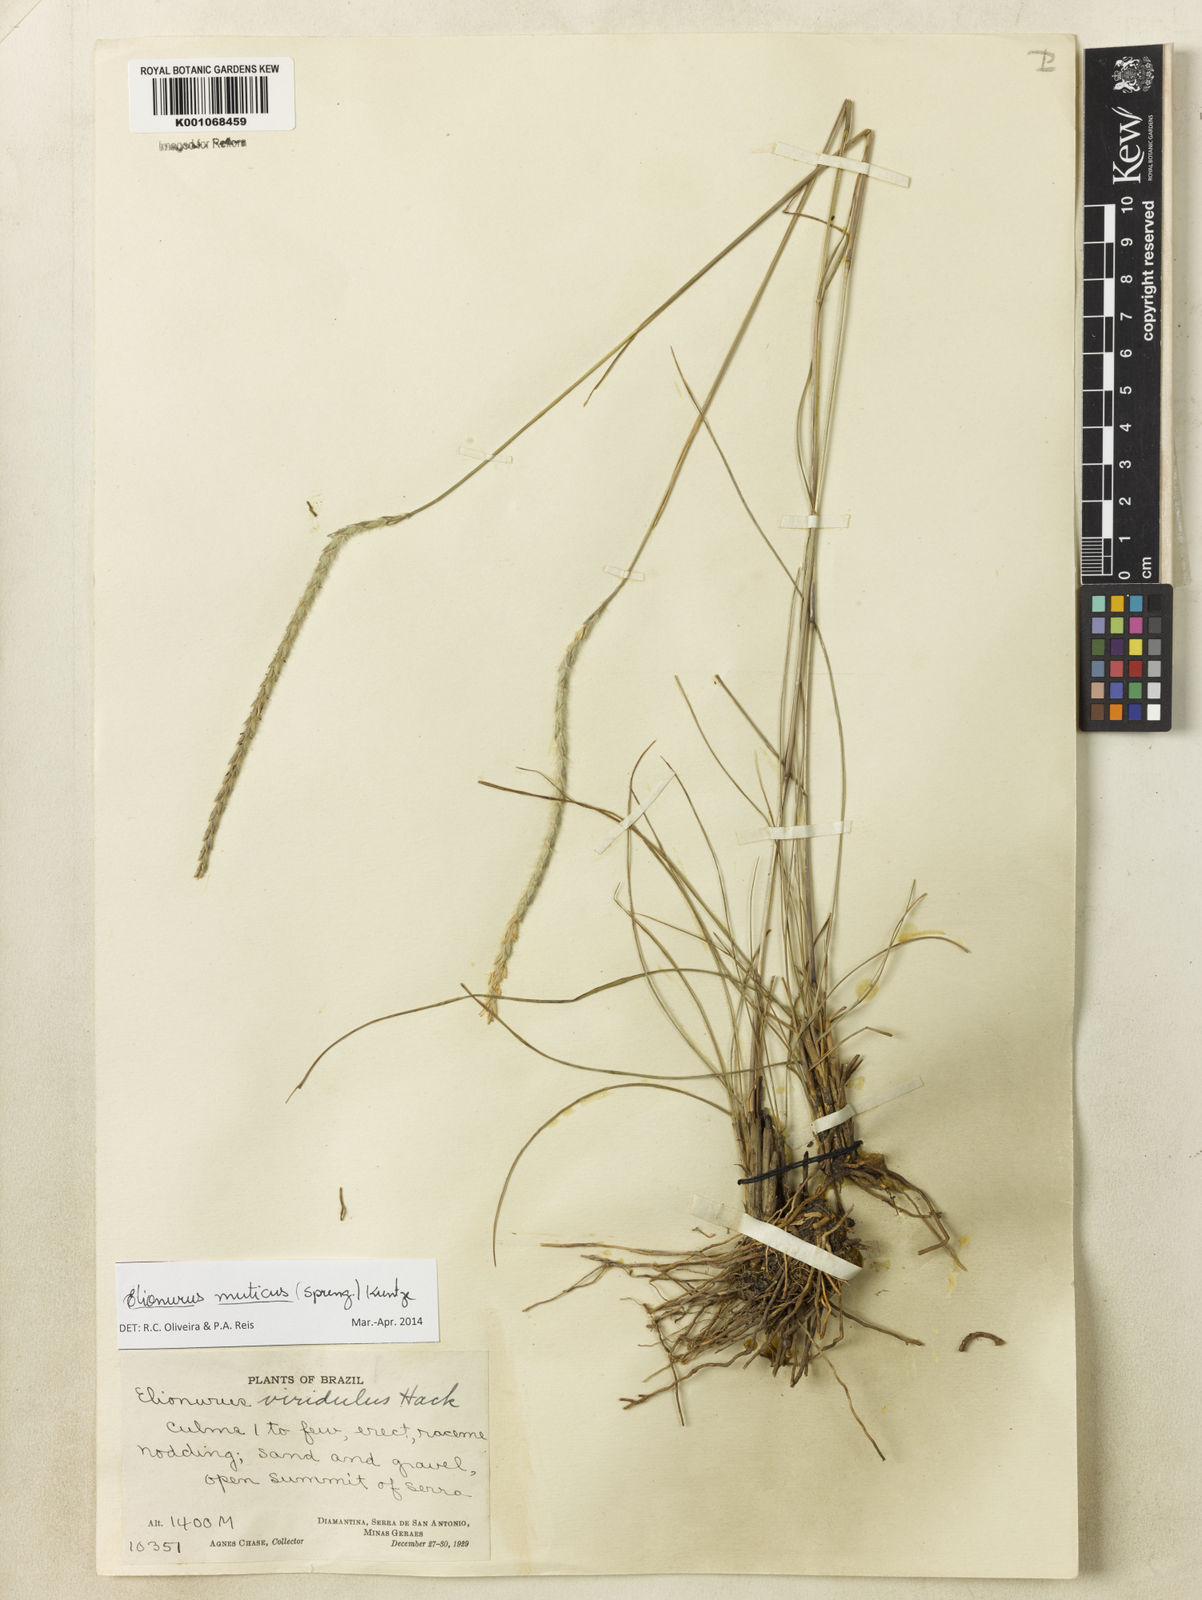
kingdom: Plantae
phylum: Tracheophyta
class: Liliopsida
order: Poales
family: Poaceae
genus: Elionurus
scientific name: Elionurus muticus
